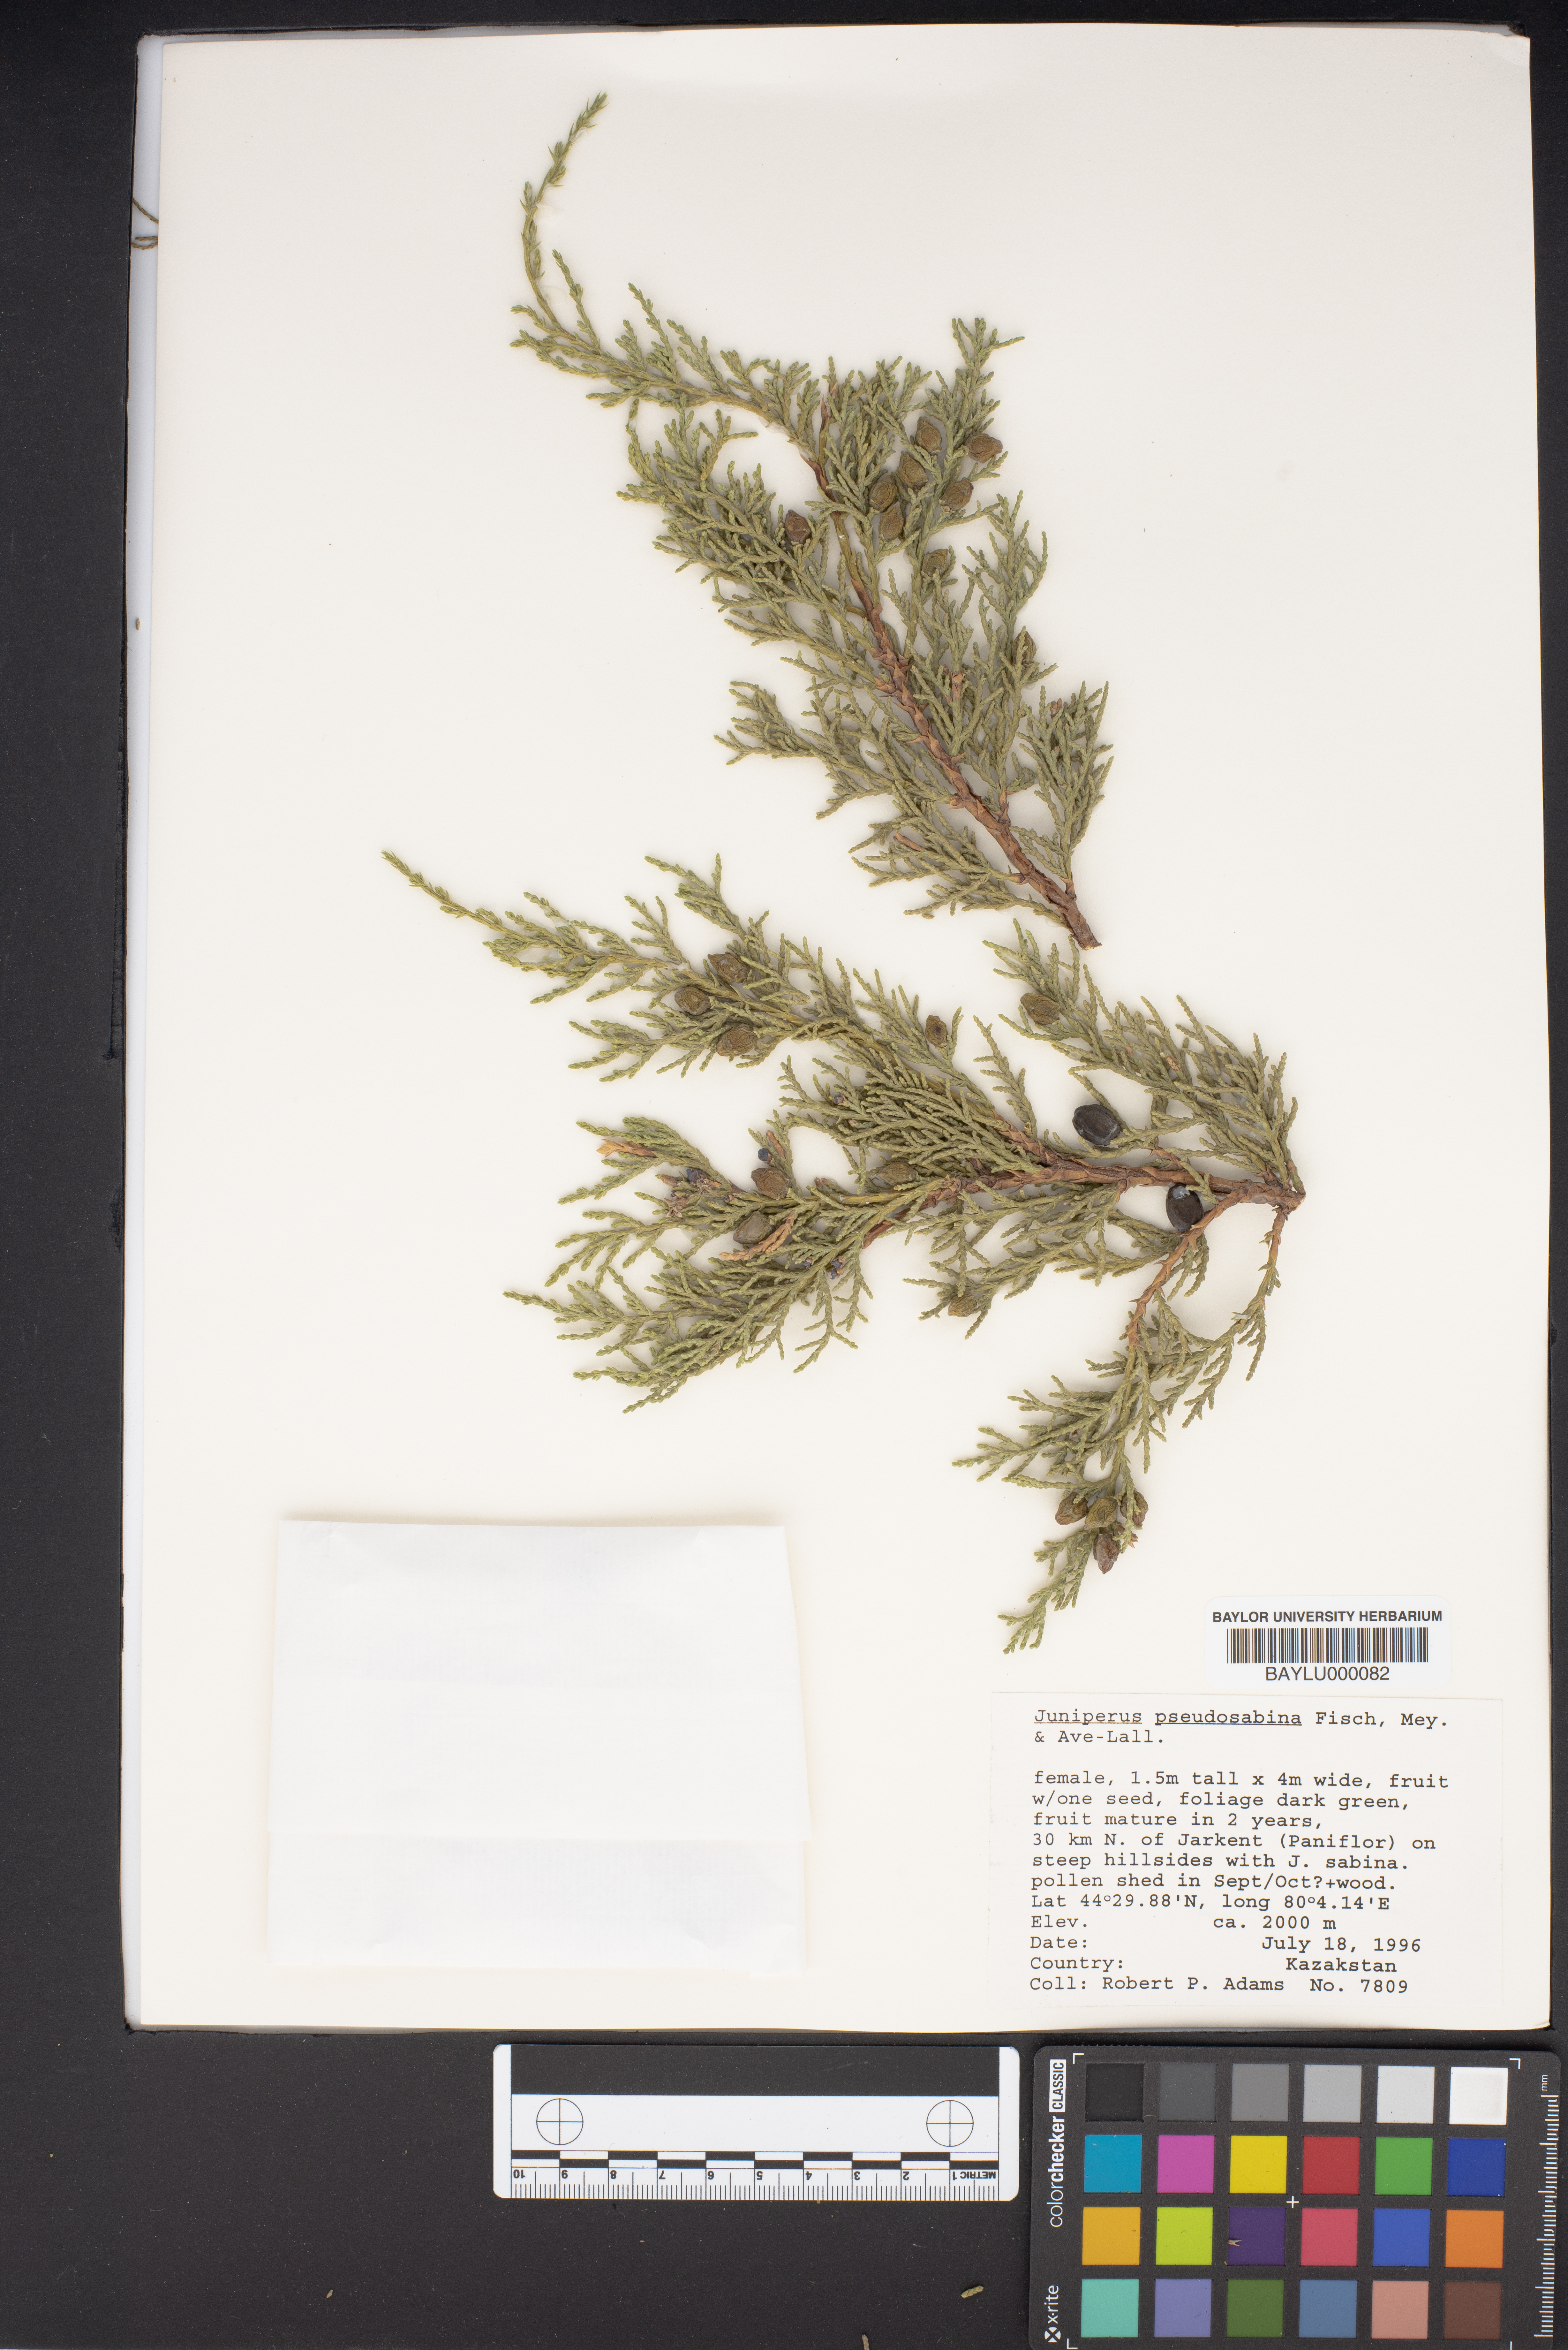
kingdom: Plantae
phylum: Tracheophyta
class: Pinopsida
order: Pinales
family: Cupressaceae
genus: Juniperus
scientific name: Juniperus pseudosabina
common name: Turkestan juniper
